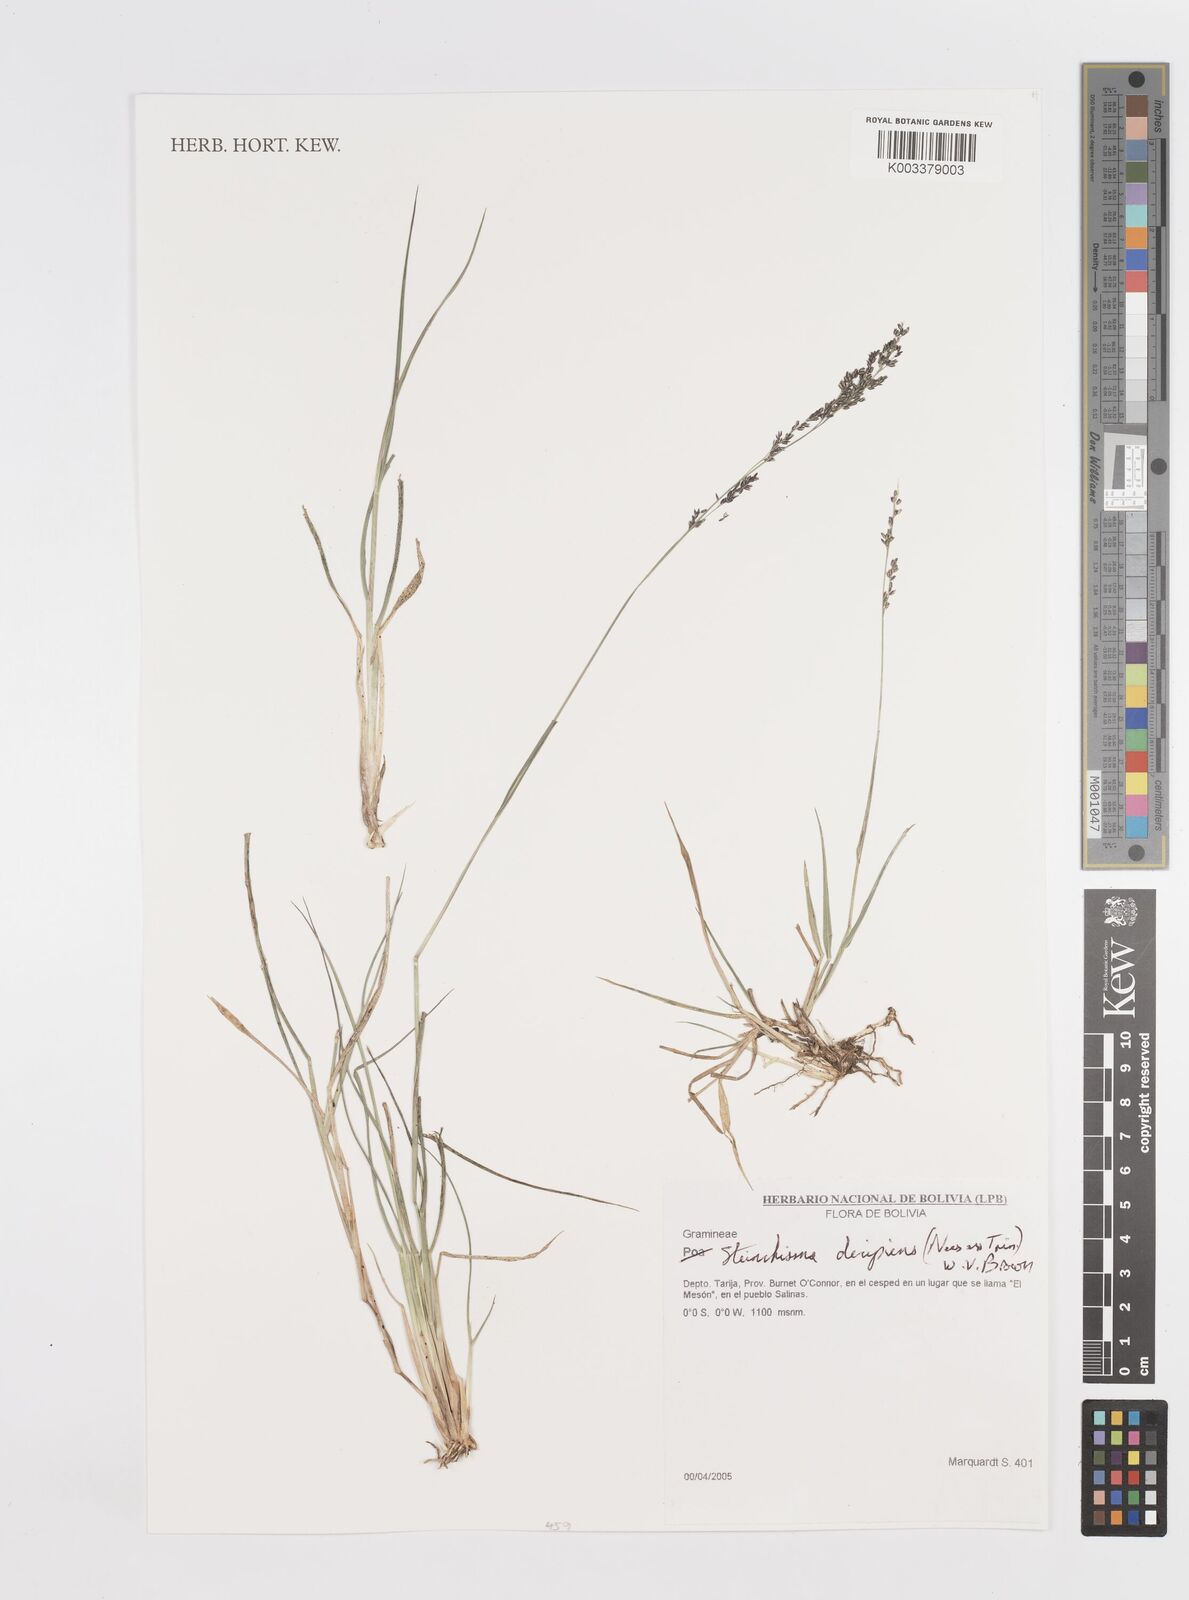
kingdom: Plantae
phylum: Tracheophyta
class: Liliopsida
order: Poales
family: Poaceae
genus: Steinchisma
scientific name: Steinchisma decipiens
